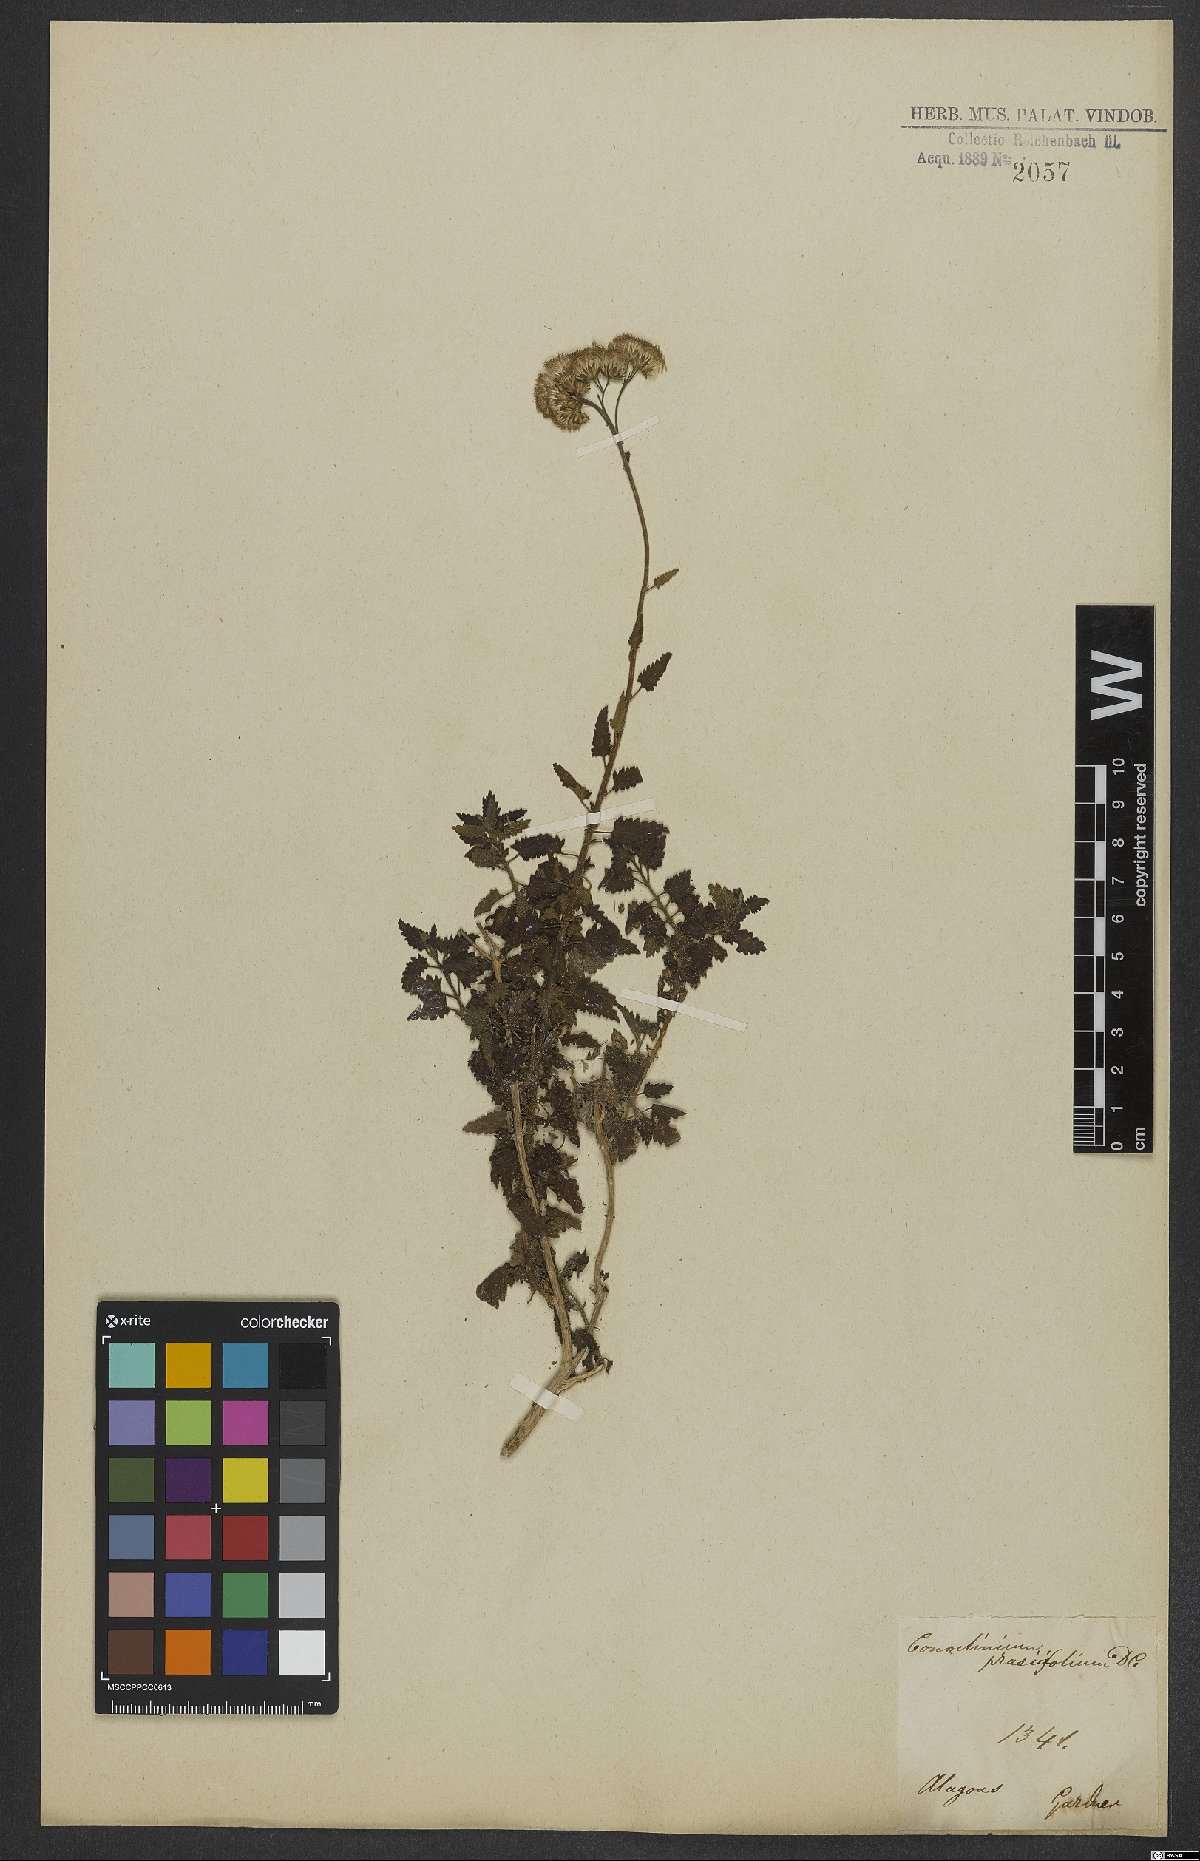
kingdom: Plantae
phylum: Tracheophyta
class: Magnoliopsida
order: Asterales
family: Asteraceae
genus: Conocliniopsis
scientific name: Conocliniopsis grossedentata
